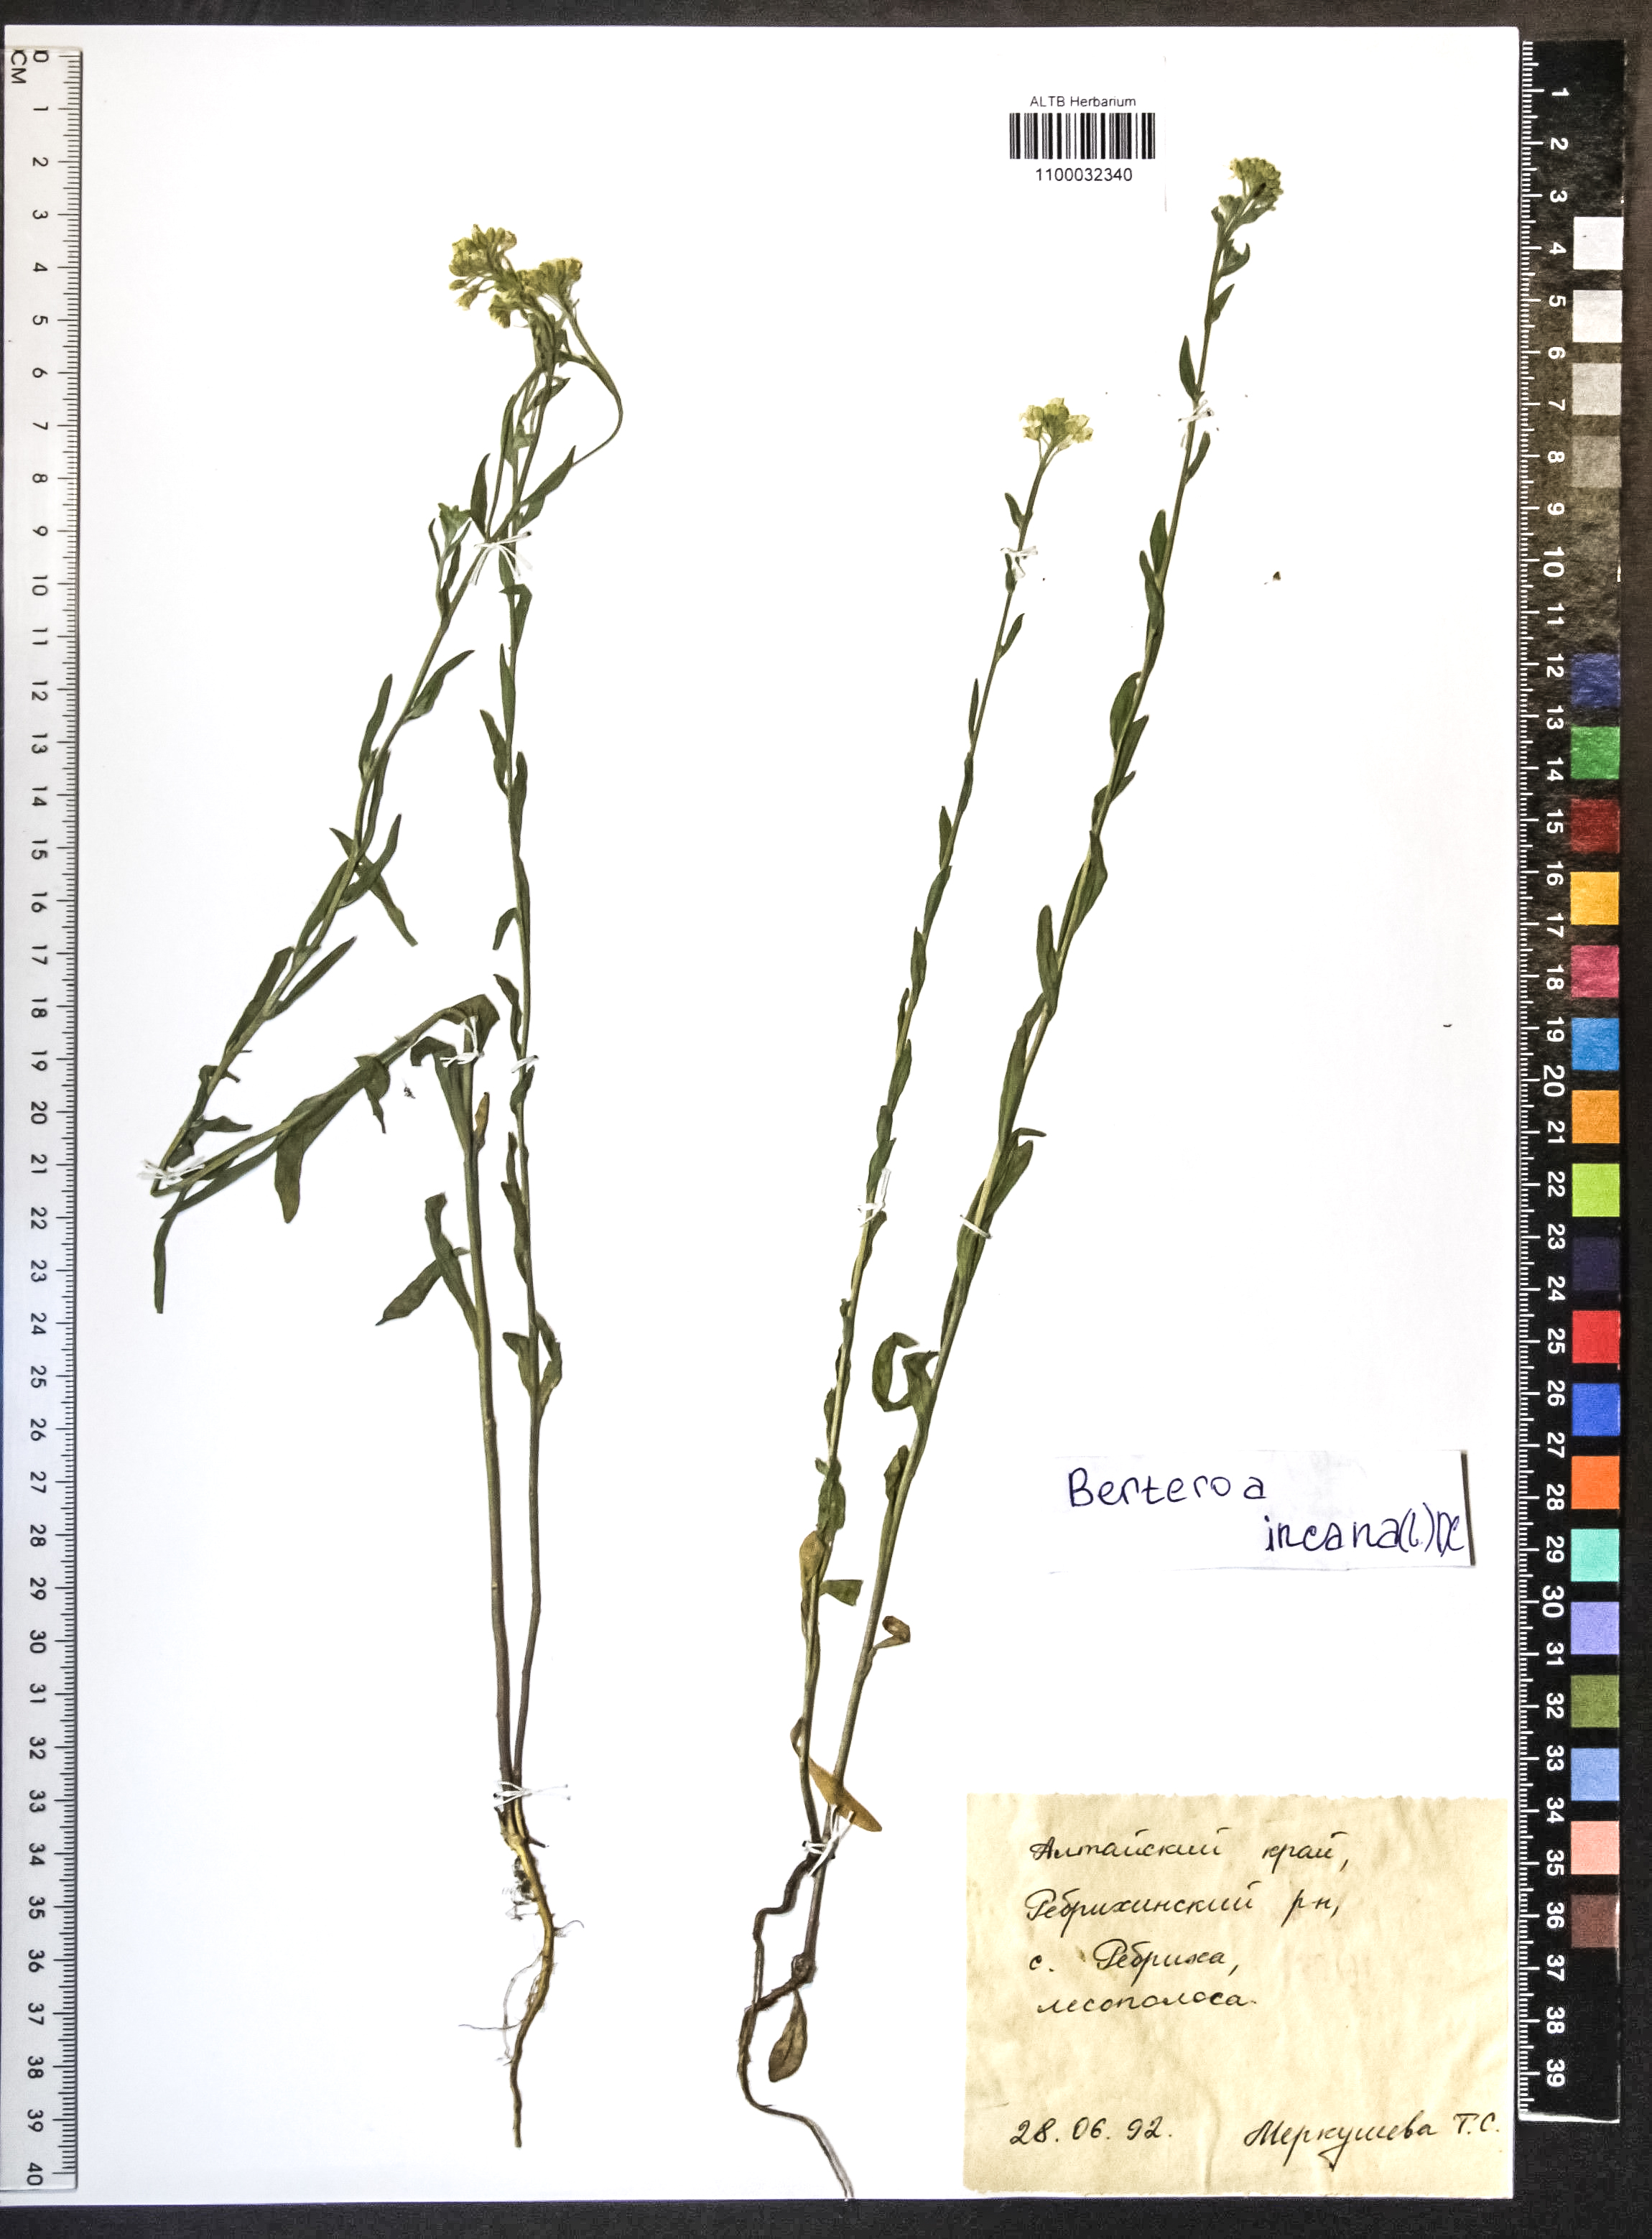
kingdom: Plantae
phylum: Tracheophyta
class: Magnoliopsida
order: Brassicales
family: Brassicaceae
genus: Berteroa
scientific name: Berteroa incana
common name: Hoary alison
